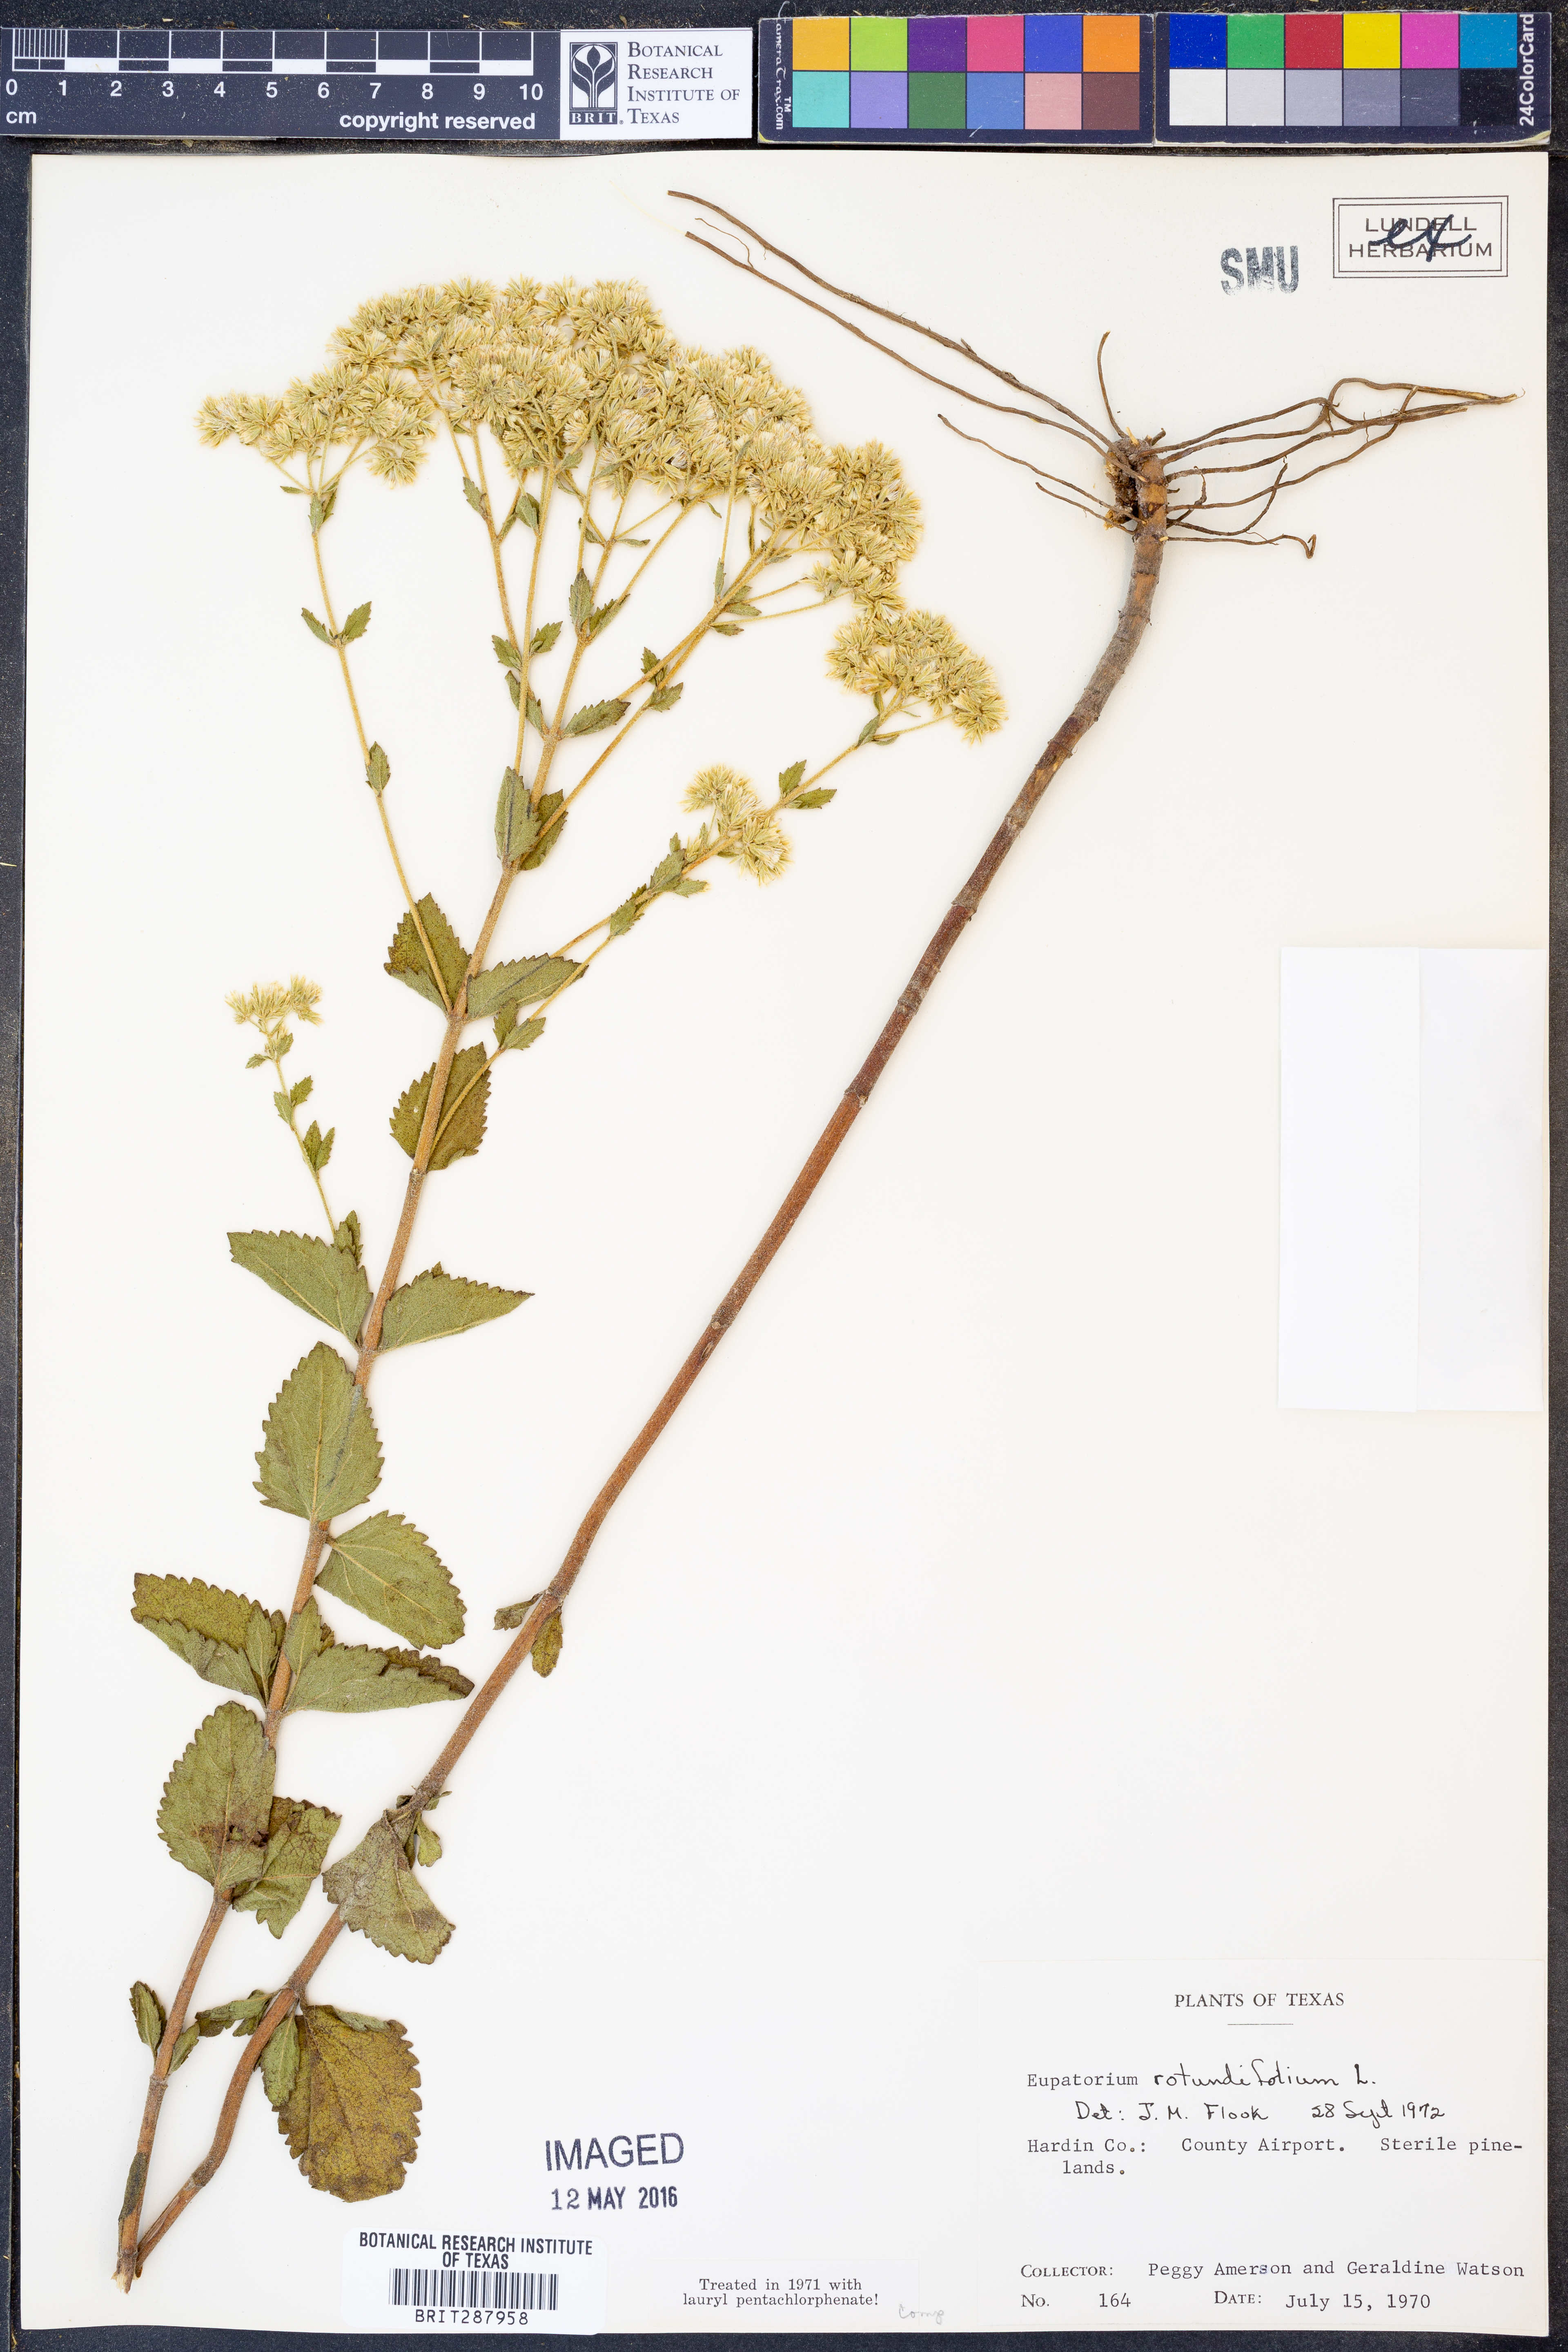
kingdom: Plantae
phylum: Tracheophyta
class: Magnoliopsida
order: Asterales
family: Asteraceae
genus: Eupatorium
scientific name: Eupatorium rotundifolium
